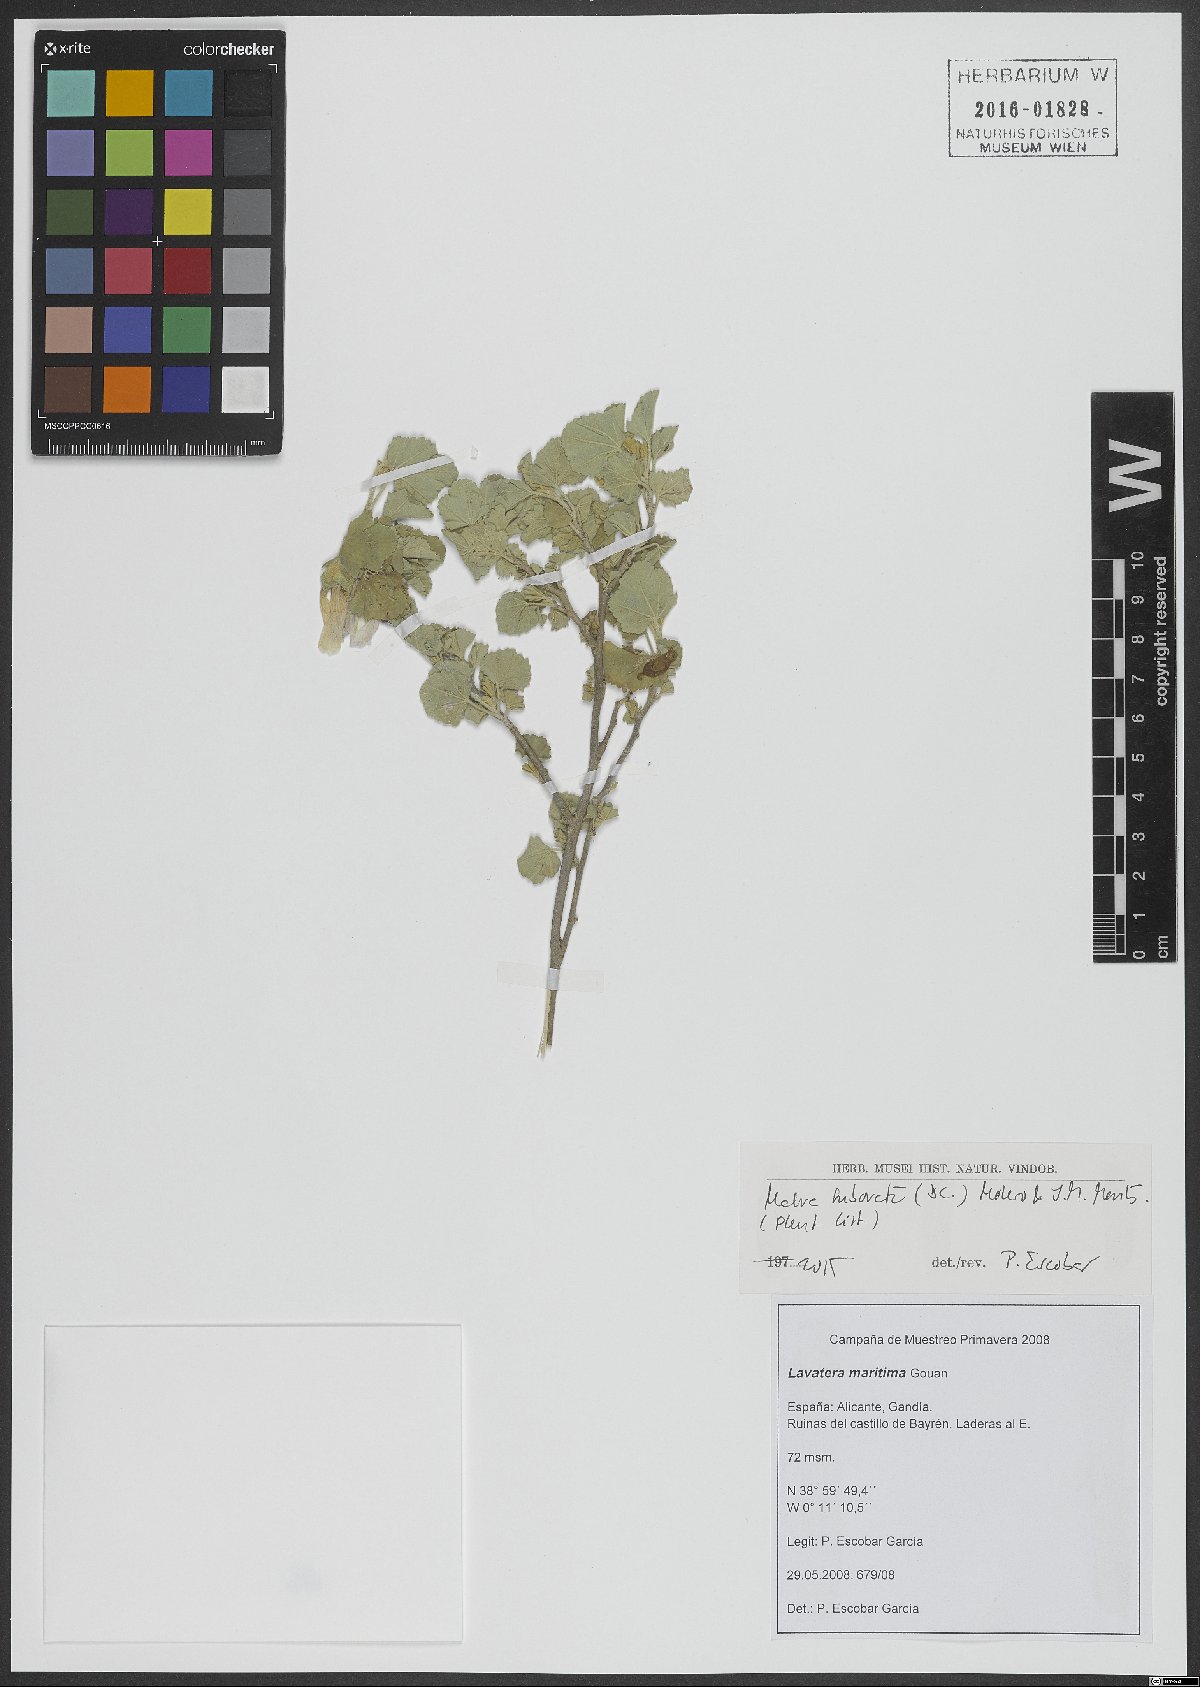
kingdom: Plantae
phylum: Tracheophyta
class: Magnoliopsida
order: Malvales
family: Malvaceae
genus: Malva
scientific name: Malva subovata
